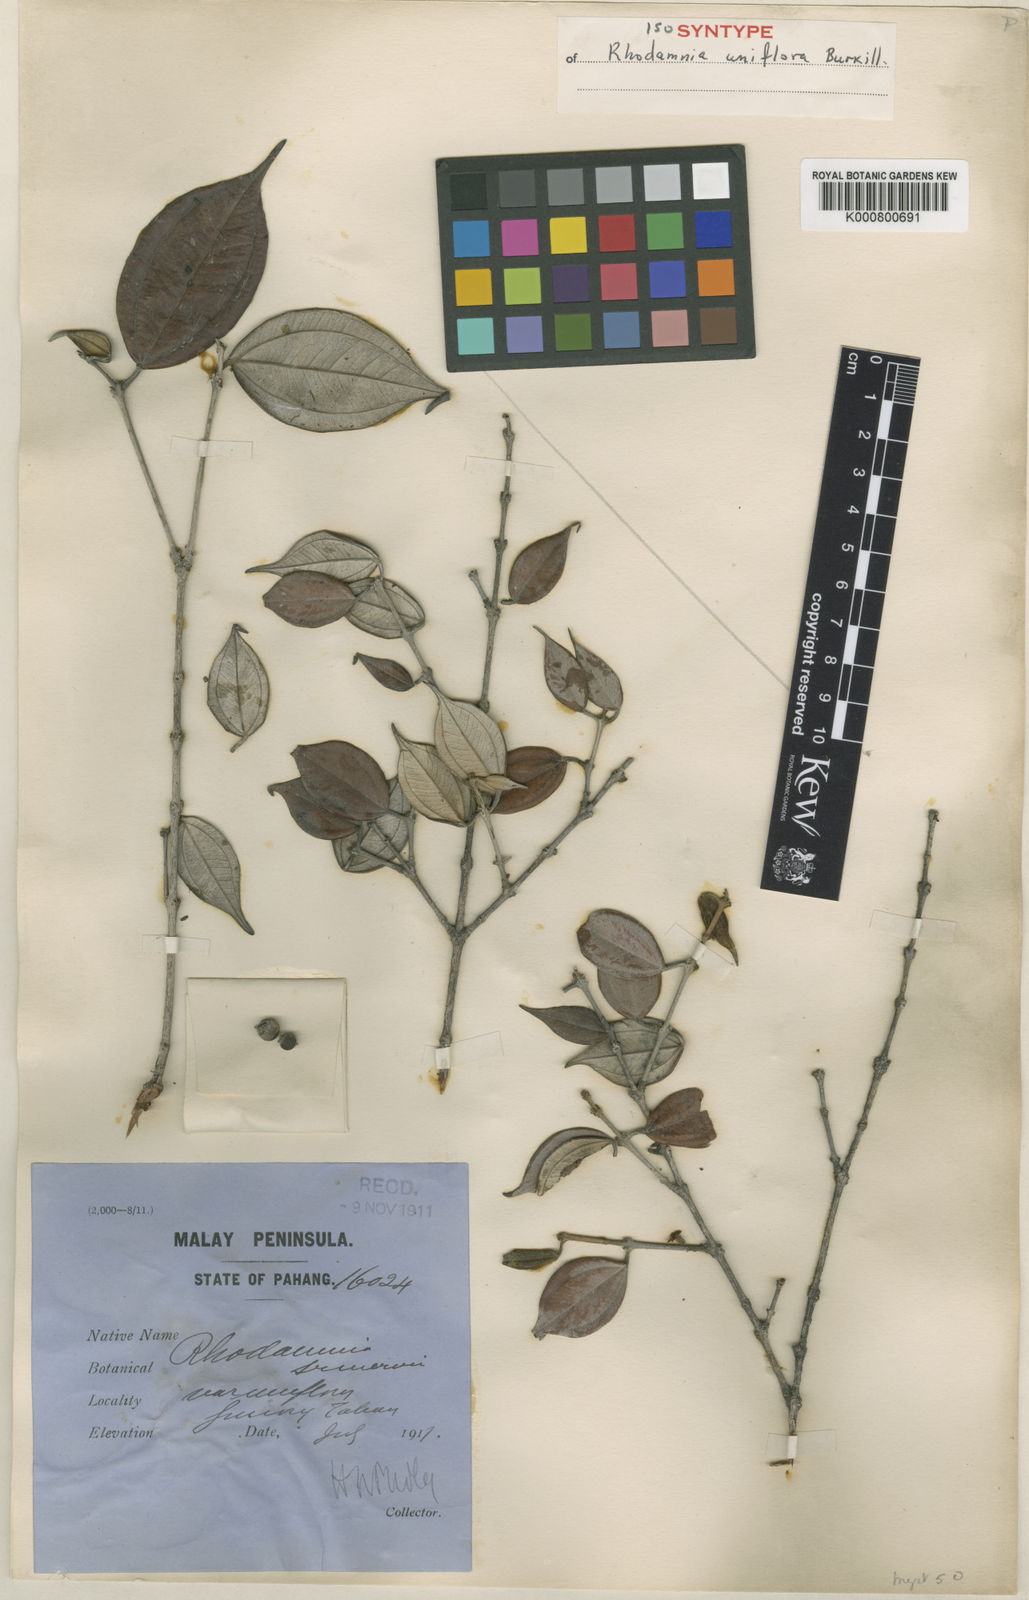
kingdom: Plantae
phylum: Tracheophyta
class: Magnoliopsida
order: Myrtales
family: Myrtaceae
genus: Rhodamnia
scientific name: Rhodamnia uniflora
